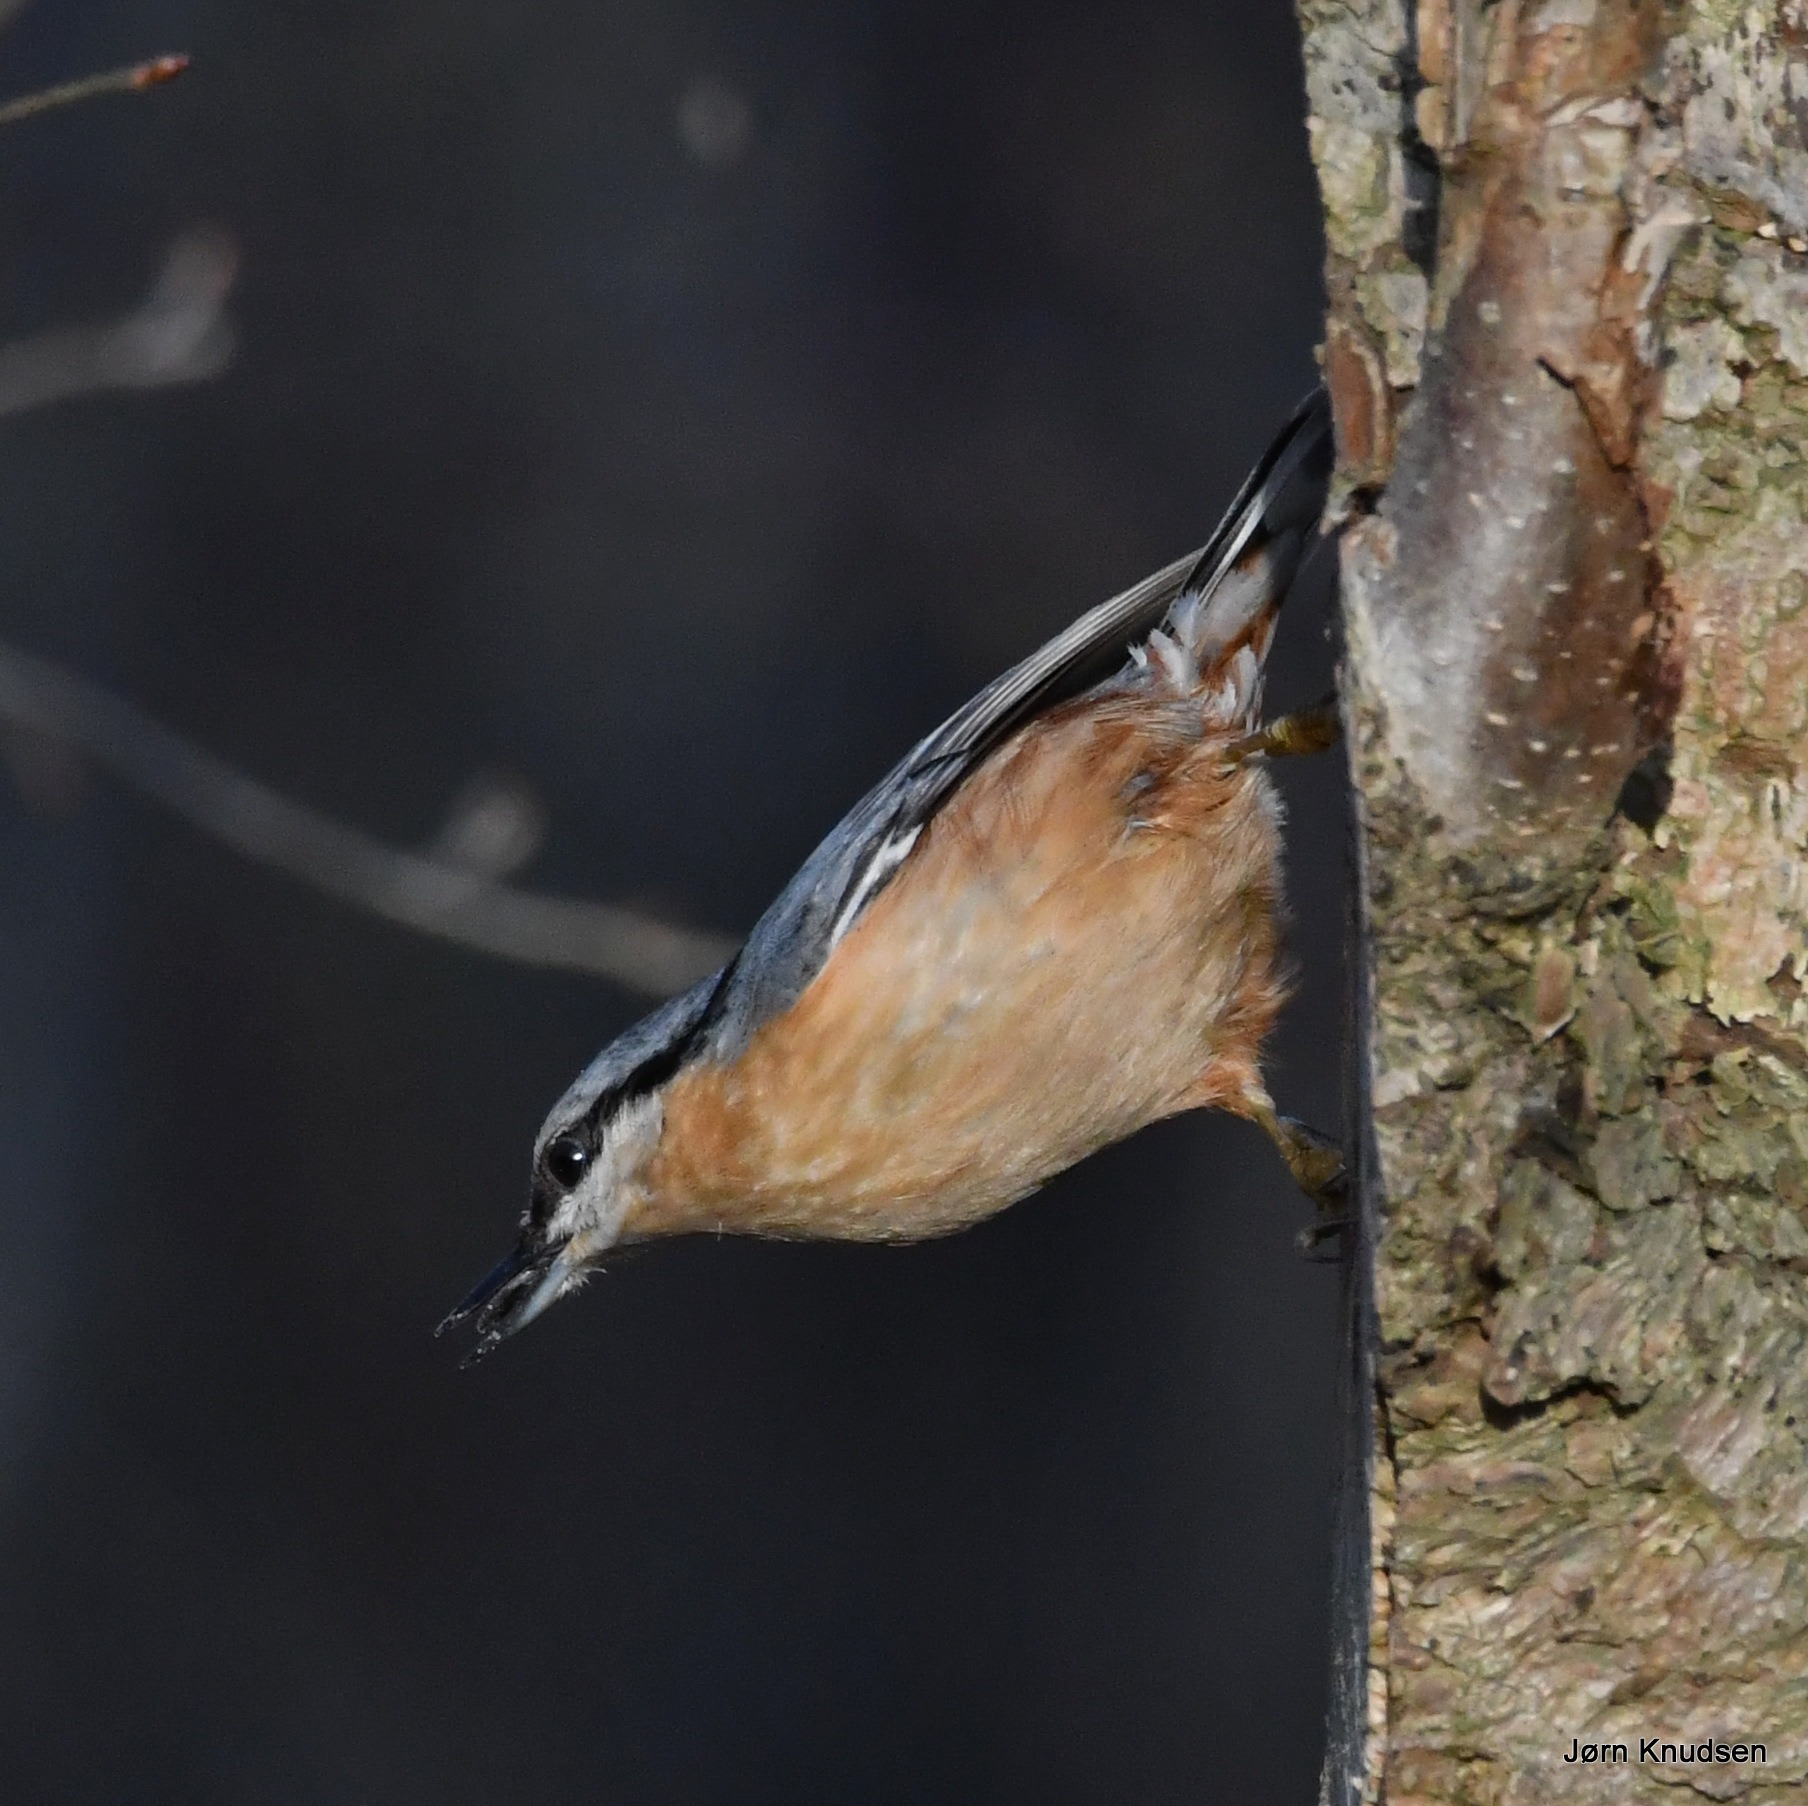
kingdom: Animalia
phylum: Chordata
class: Aves
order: Passeriformes
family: Sittidae
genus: Sitta
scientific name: Sitta europaea
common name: Spætmejse
